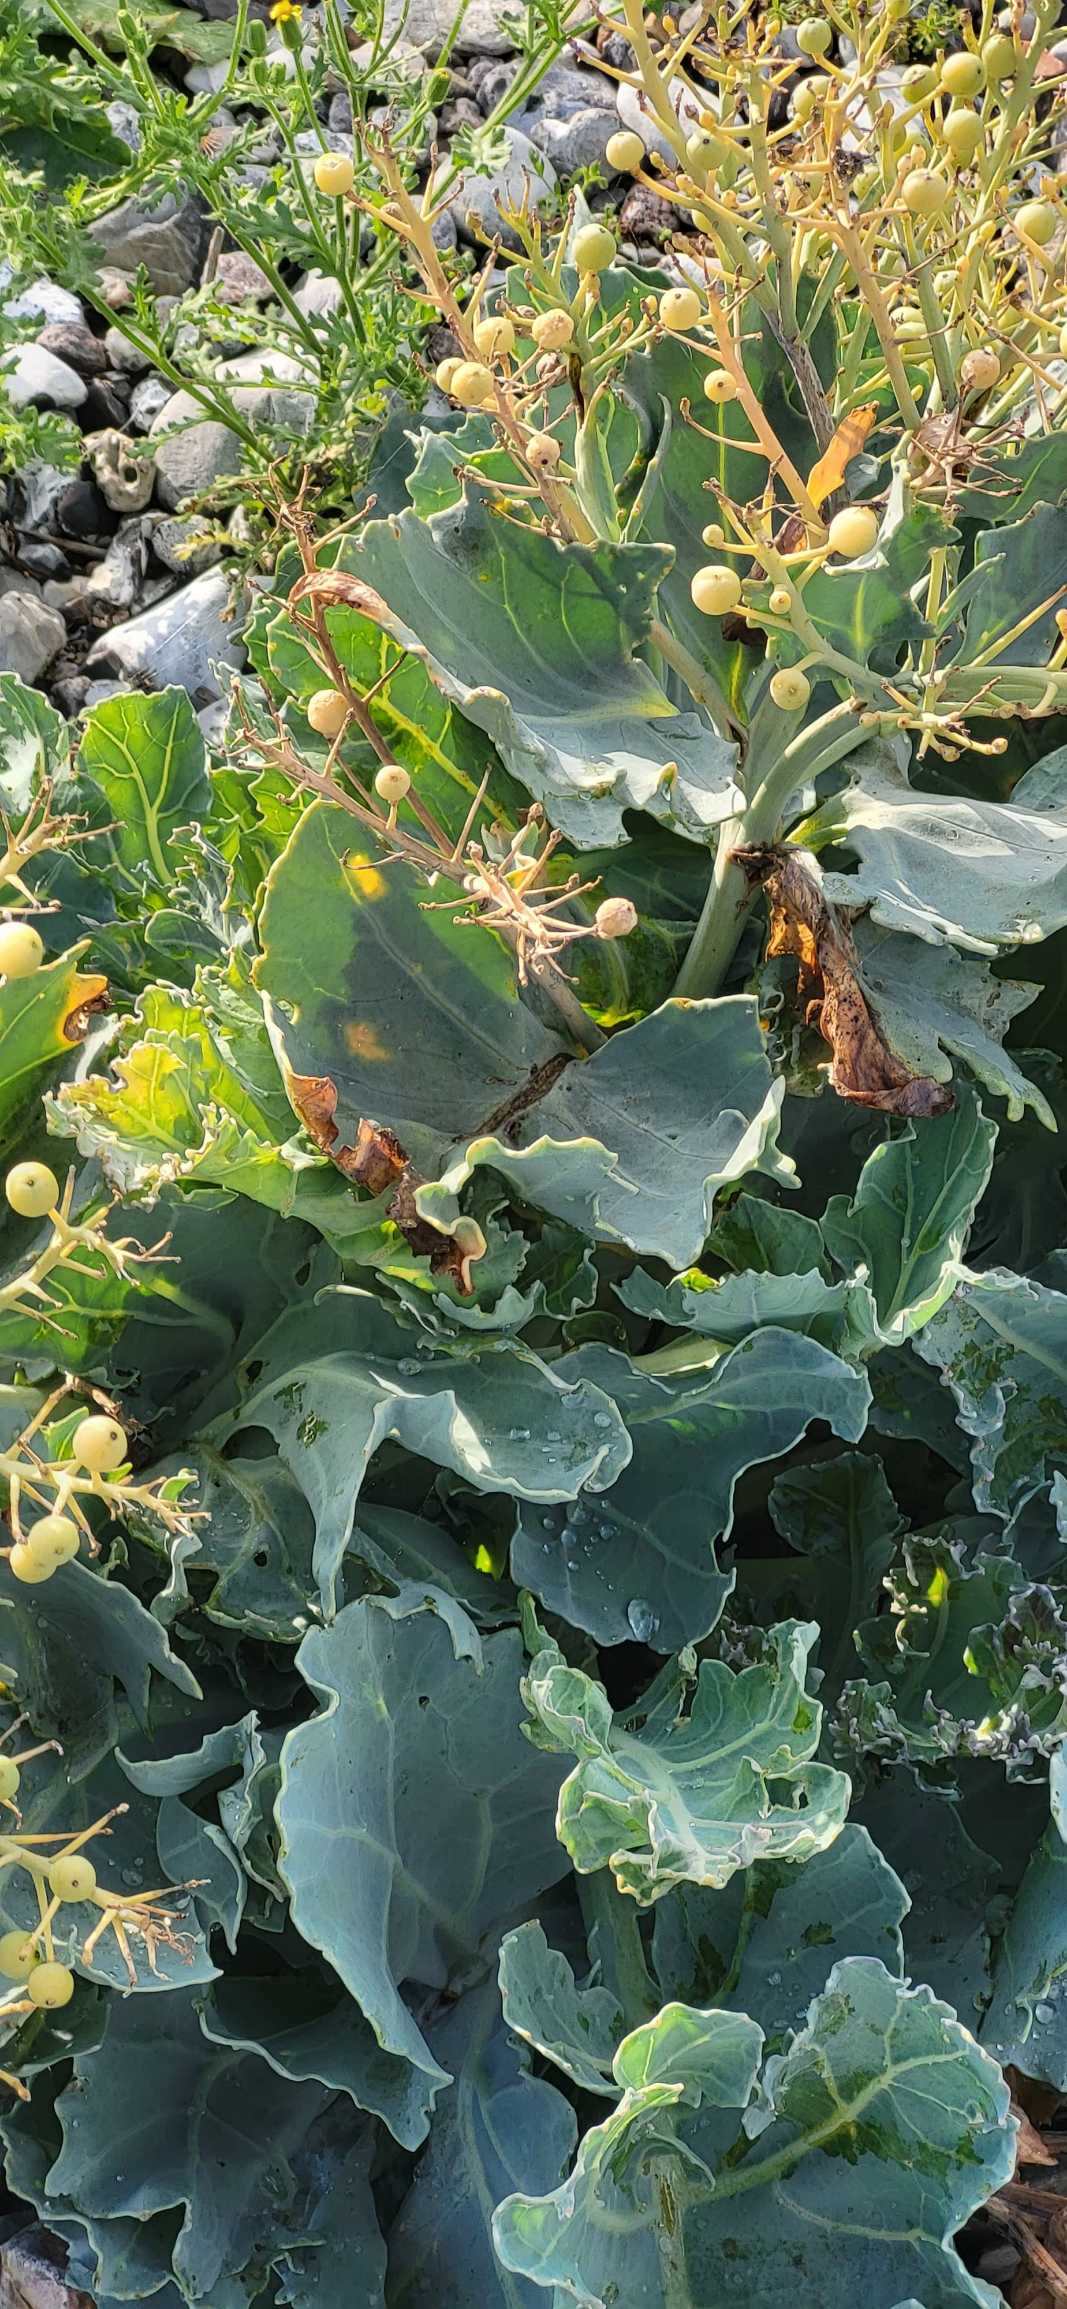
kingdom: Plantae
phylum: Tracheophyta
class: Magnoliopsida
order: Brassicales
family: Brassicaceae
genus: Crambe
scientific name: Crambe maritima
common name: Strandkål
